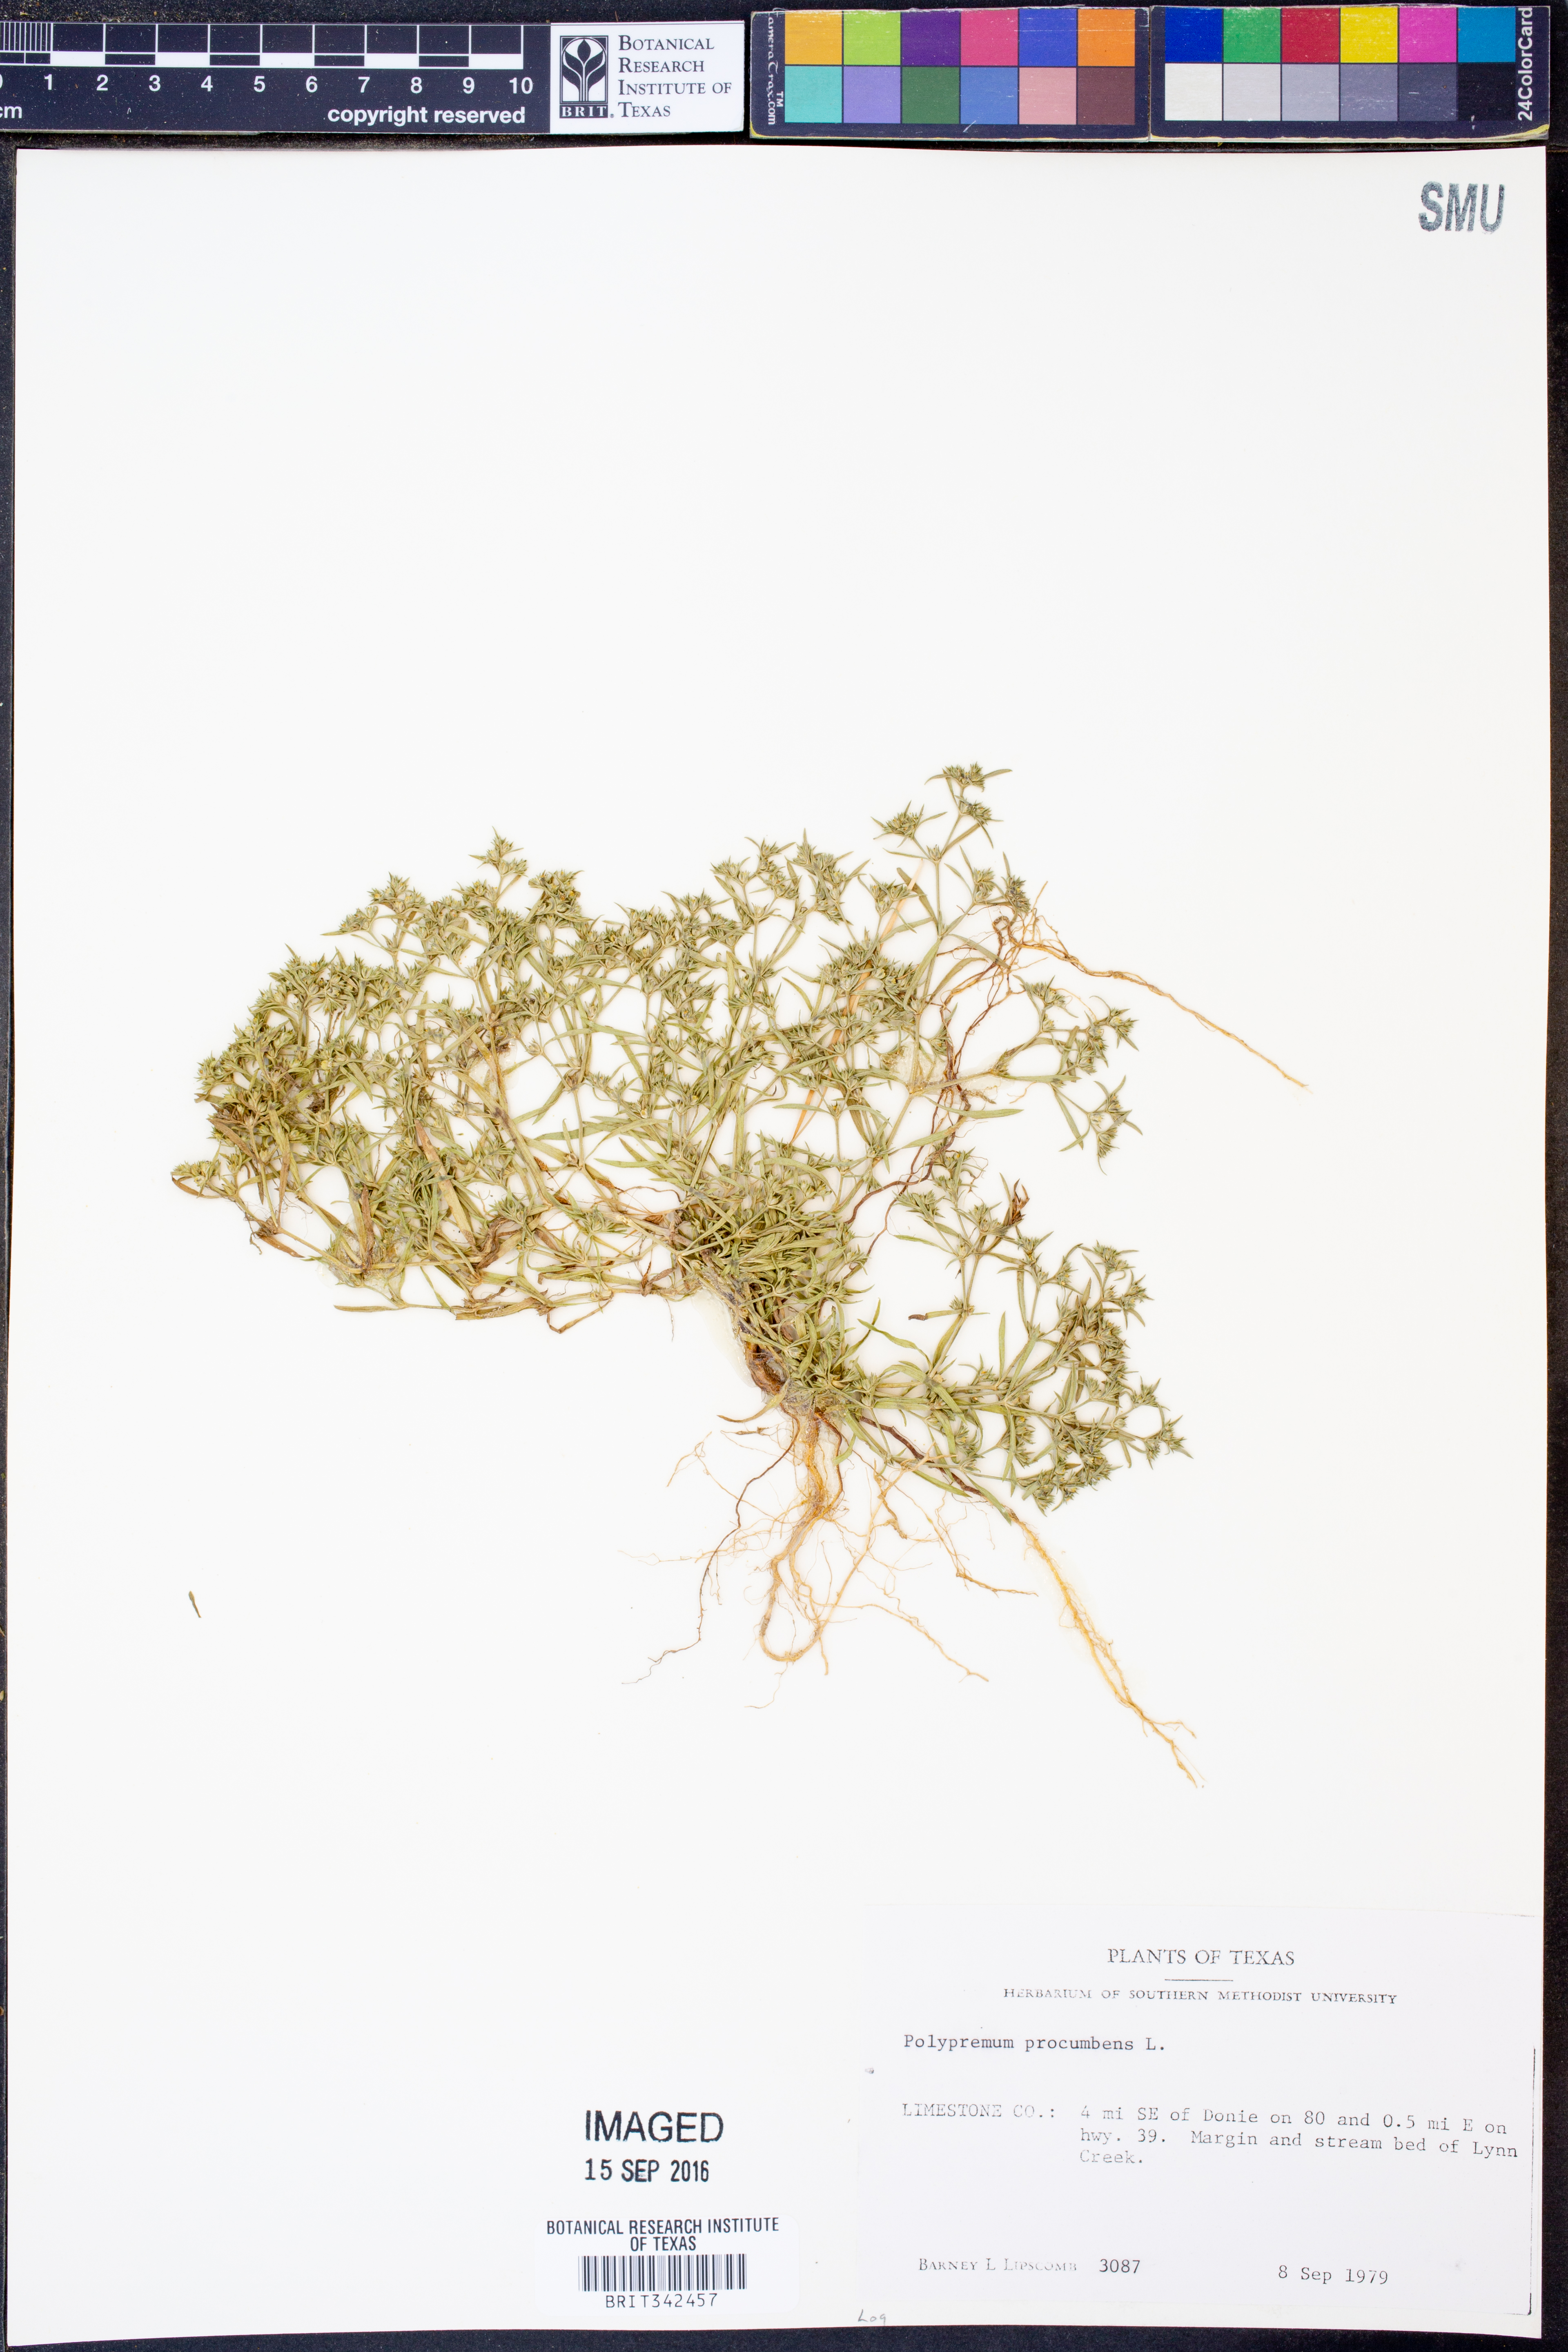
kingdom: Plantae
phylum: Tracheophyta
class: Magnoliopsida
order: Lamiales
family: Tetrachondraceae
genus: Polypremum
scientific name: Polypremum procumbens
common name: Juniper-leaf
